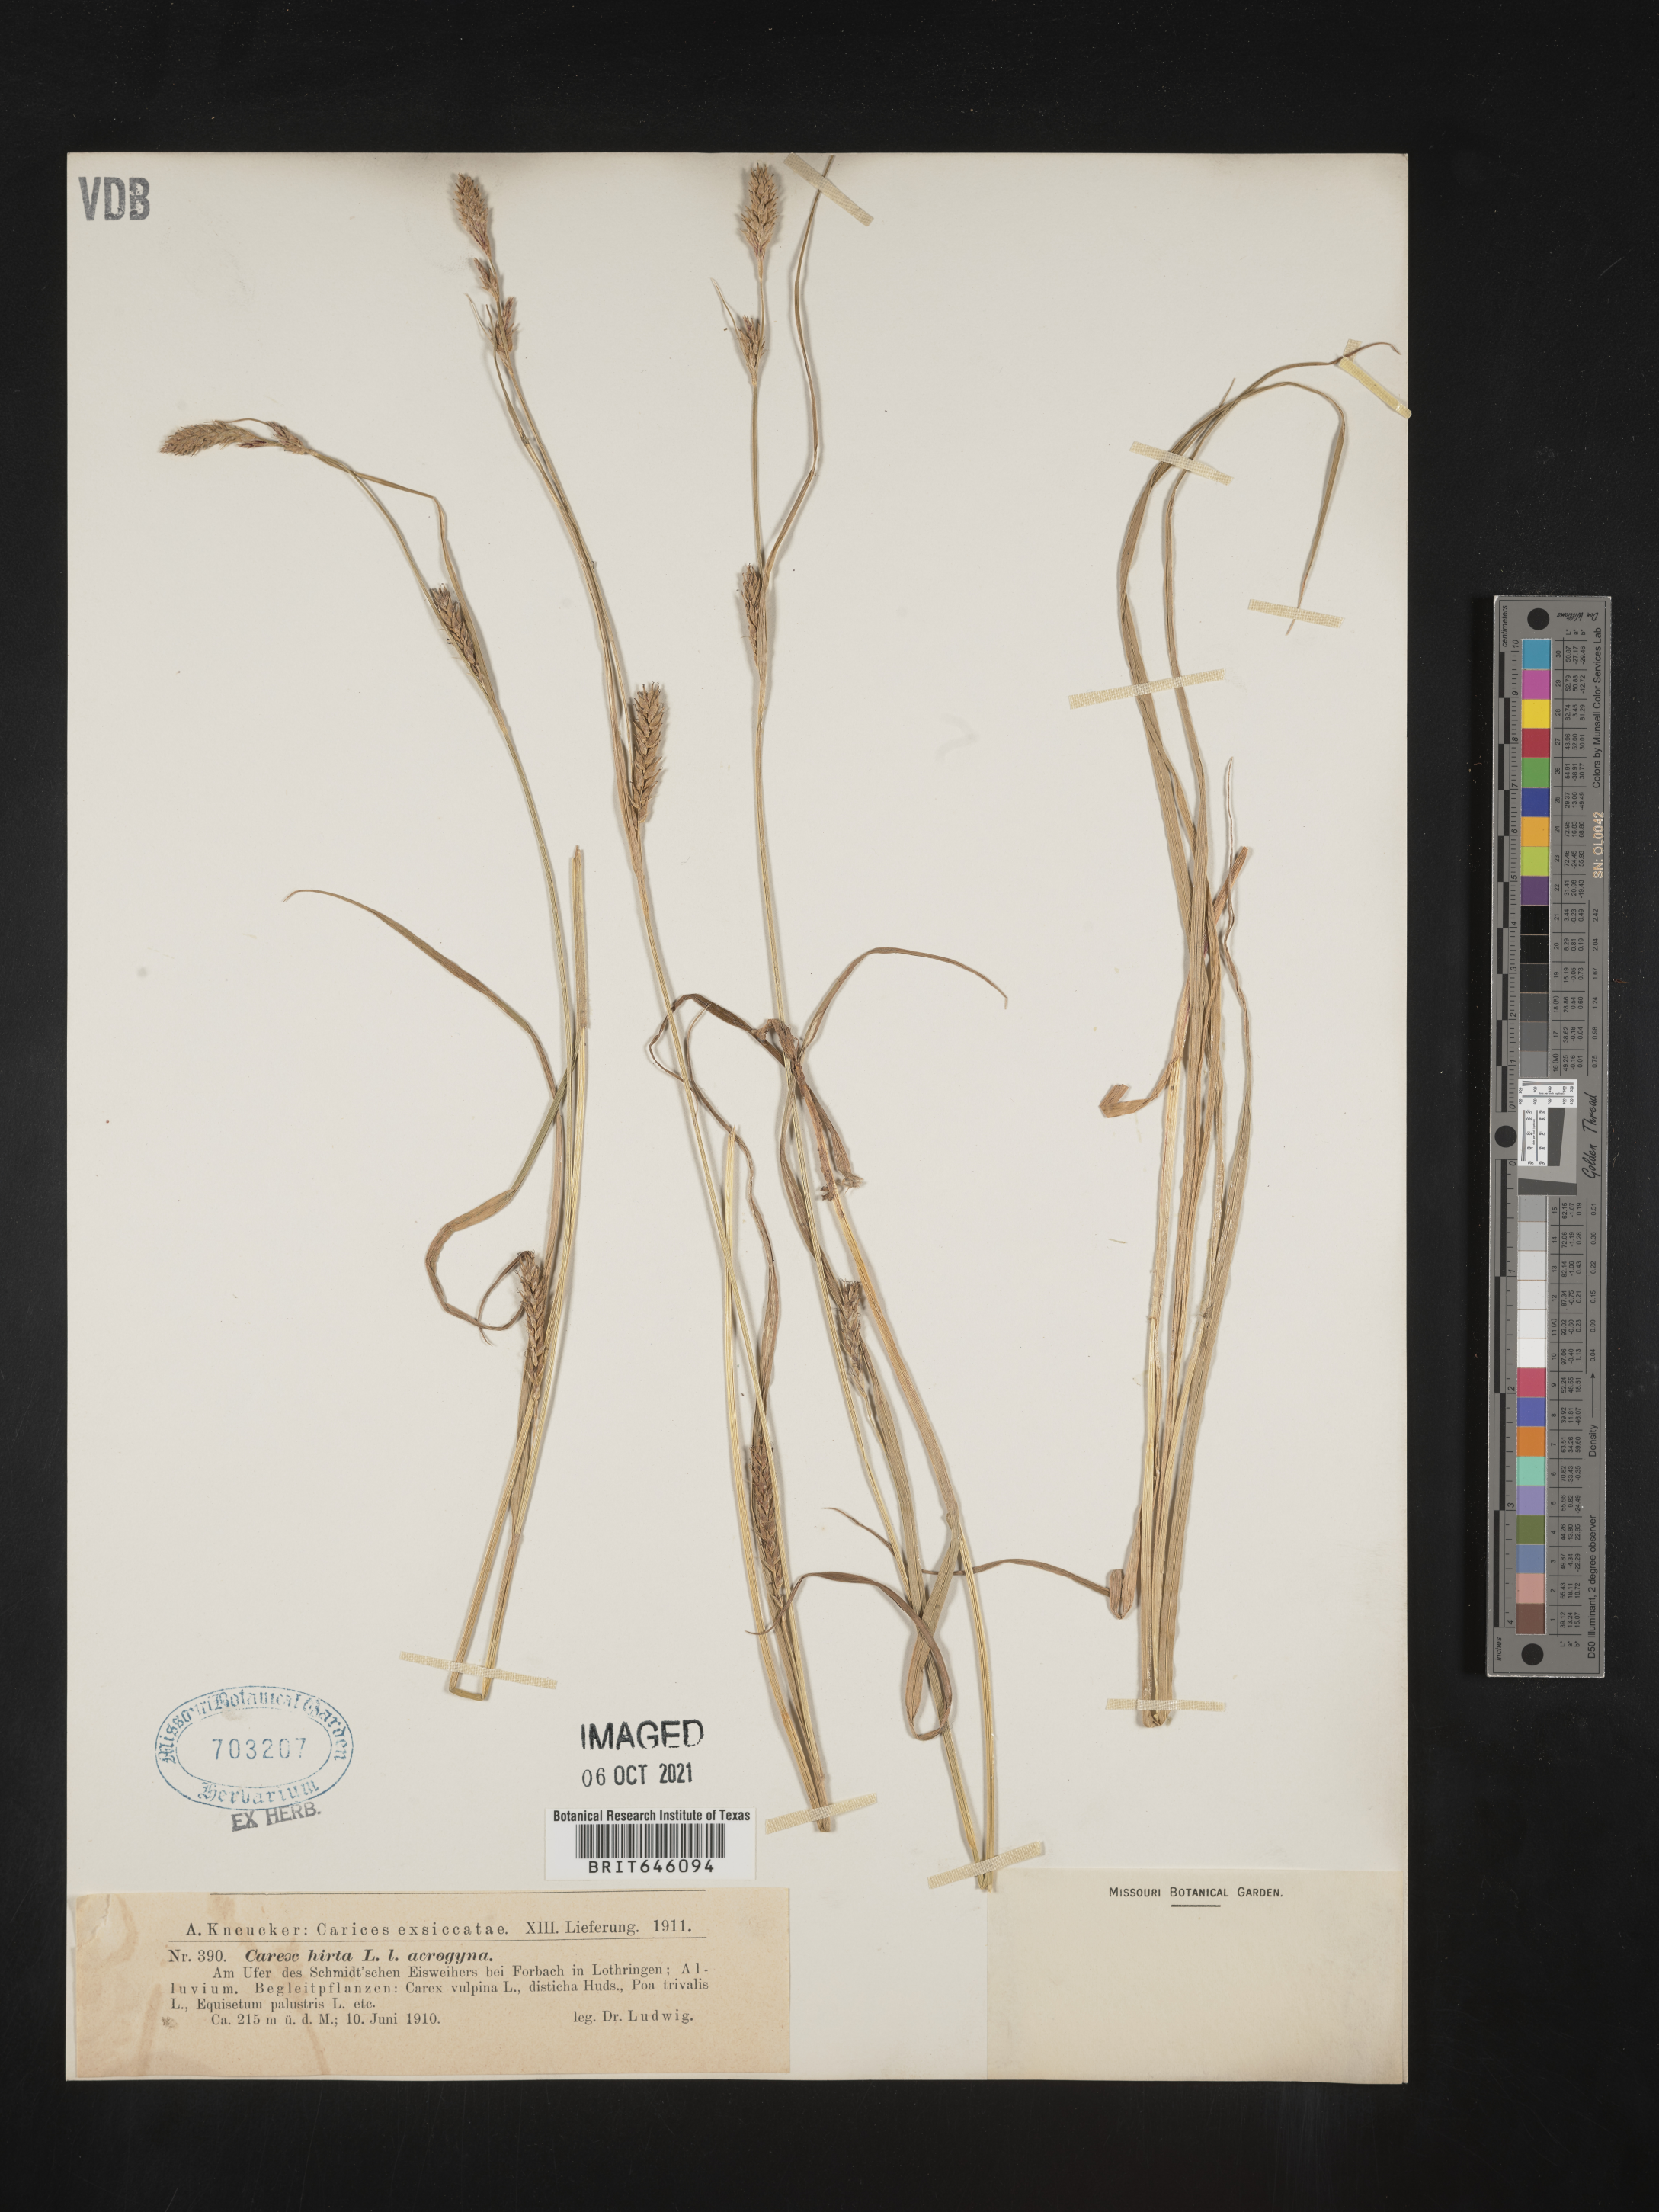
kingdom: Plantae
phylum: Tracheophyta
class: Liliopsida
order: Poales
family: Cyperaceae
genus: Carex
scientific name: Carex
